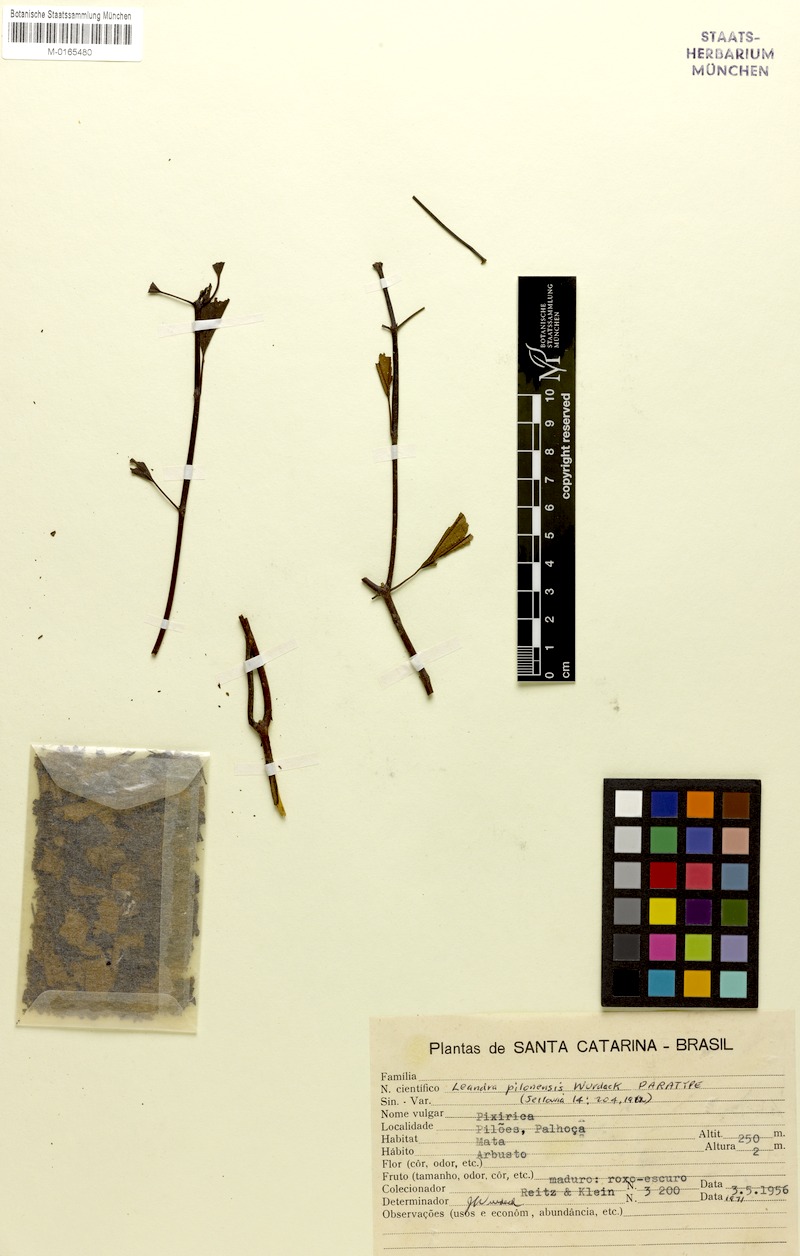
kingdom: Plantae
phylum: Tracheophyta
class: Magnoliopsida
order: Myrtales
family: Melastomataceae
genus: Miconia
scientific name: Miconia pilonensis
